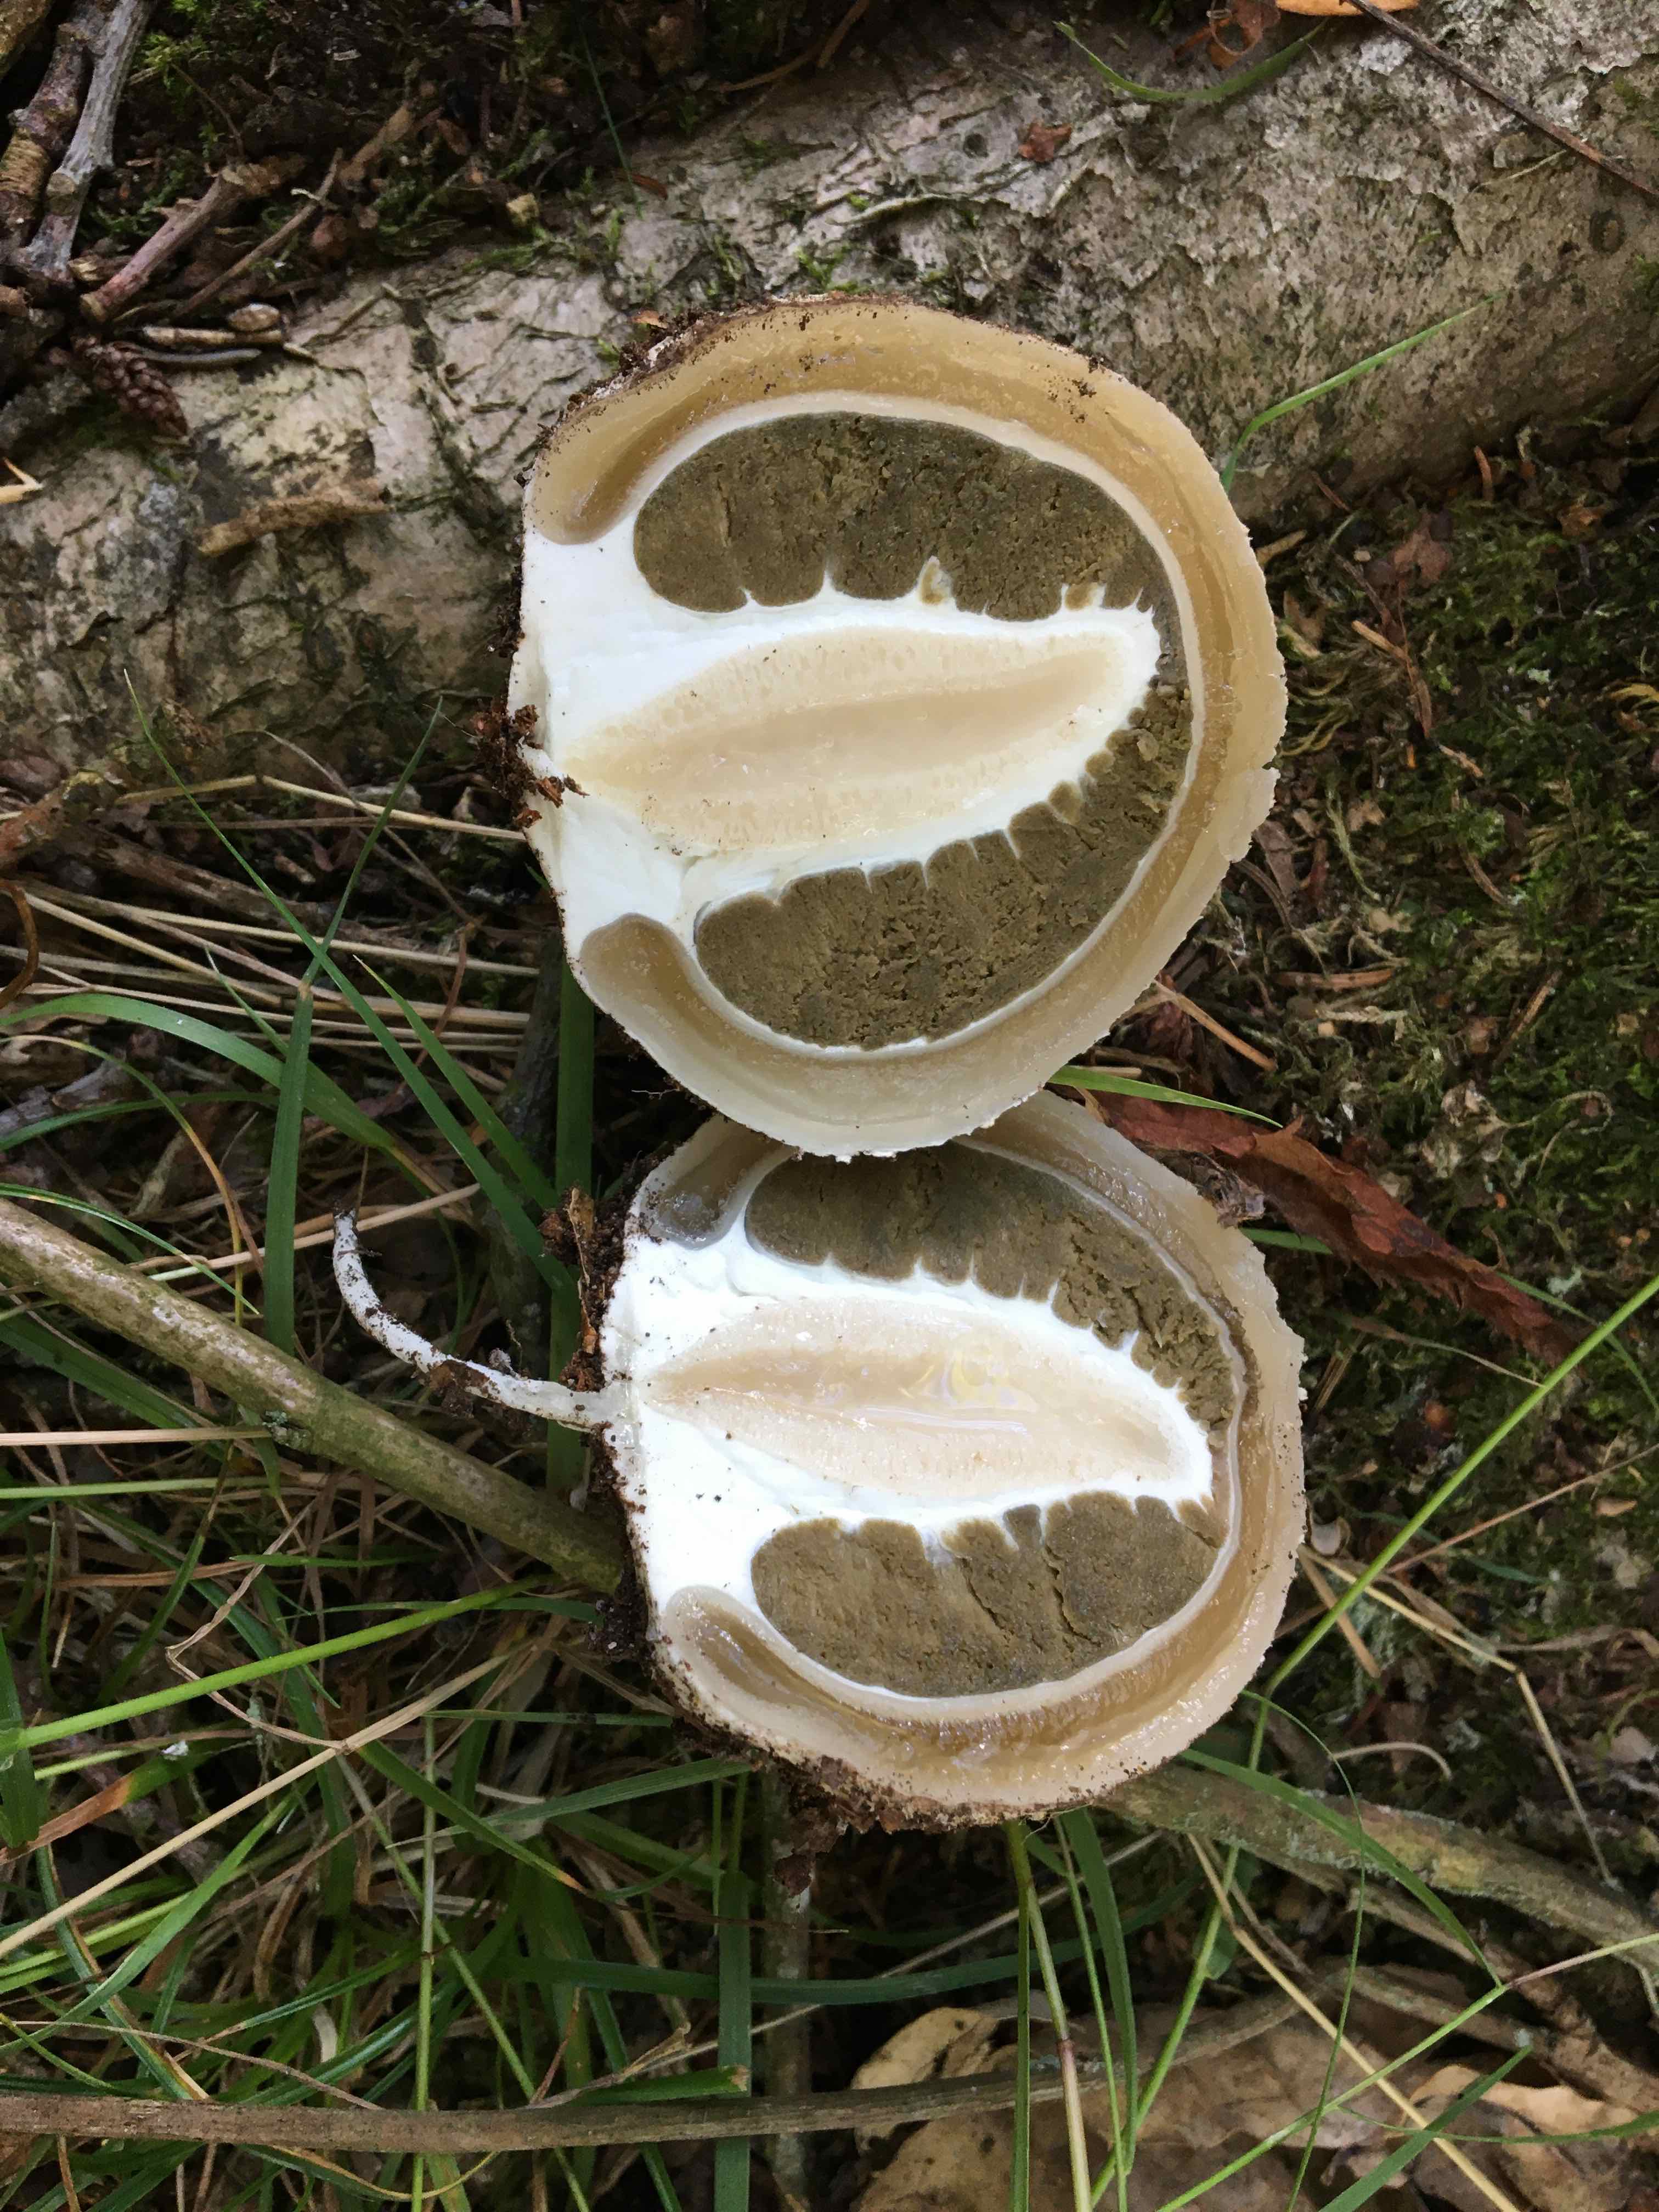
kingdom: Fungi
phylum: Basidiomycota
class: Agaricomycetes
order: Phallales
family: Phallaceae
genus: Phallus
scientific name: Phallus impudicus
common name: almindelig stinksvamp
